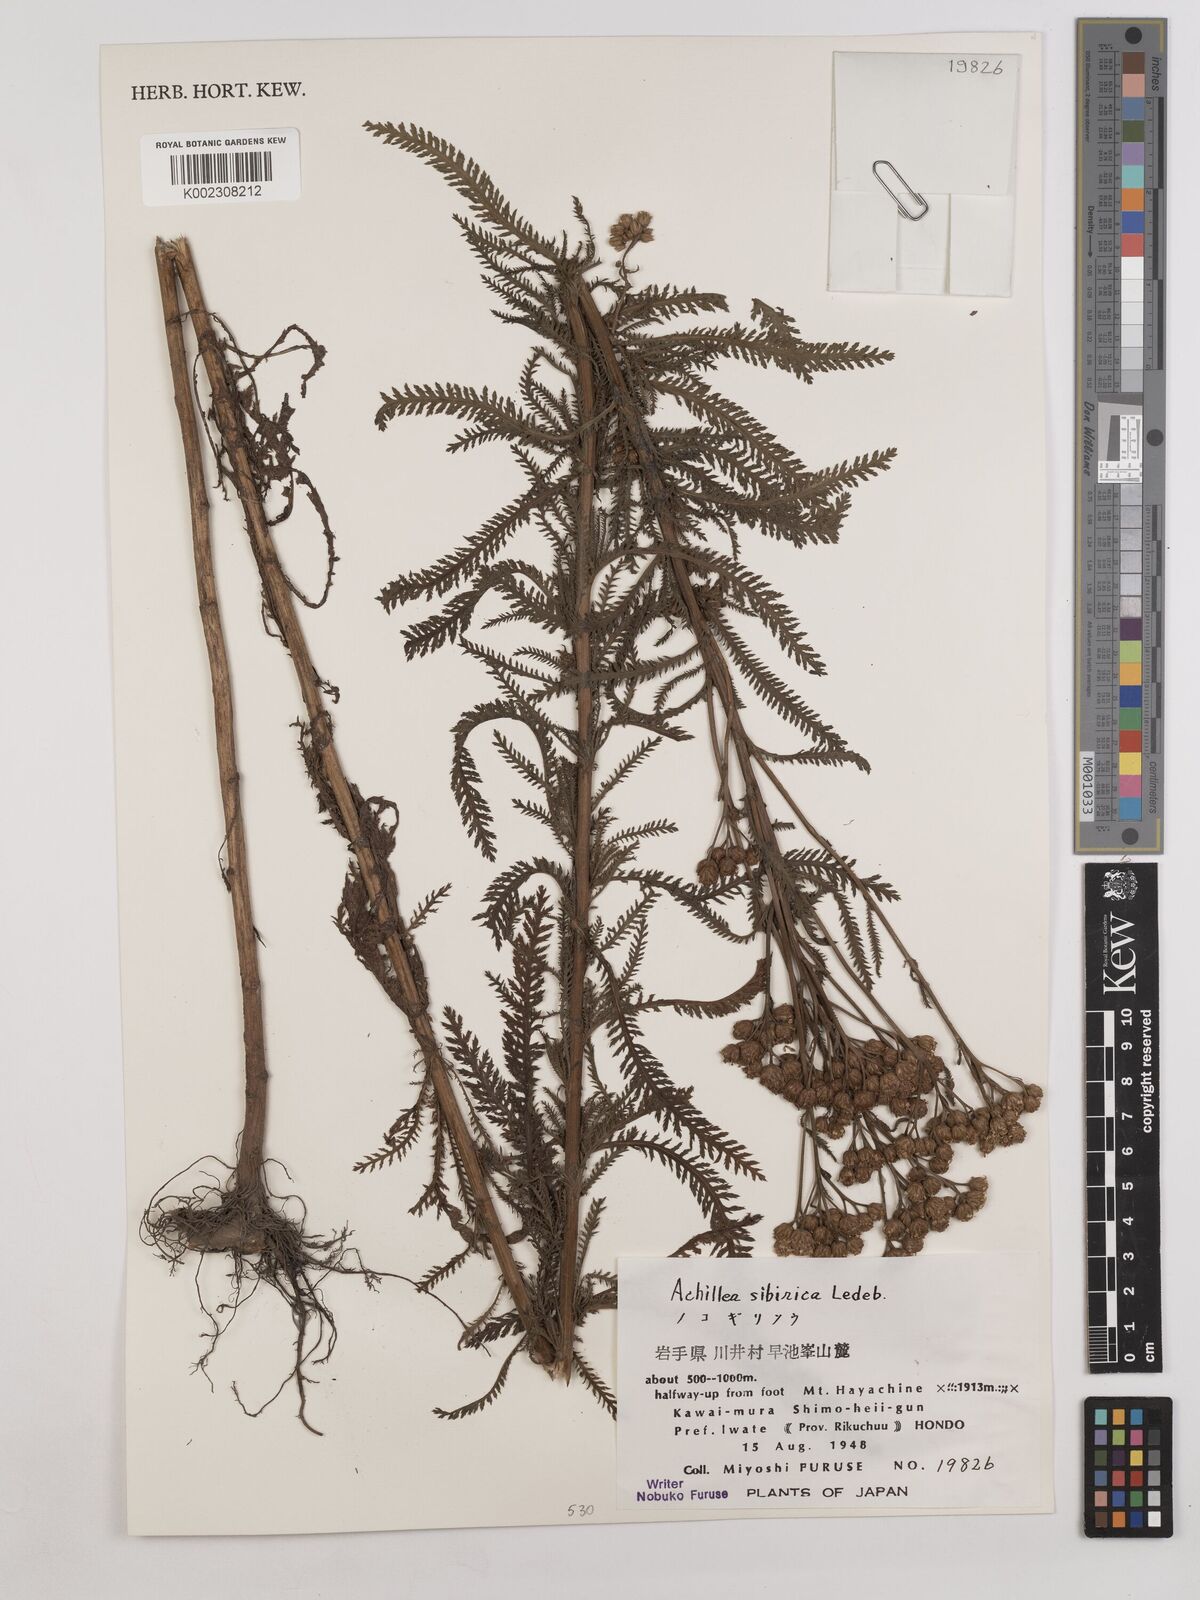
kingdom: Plantae
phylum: Tracheophyta
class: Magnoliopsida
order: Asterales
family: Asteraceae
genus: Achillea
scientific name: Achillea alpina
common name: Siberian yarrow
